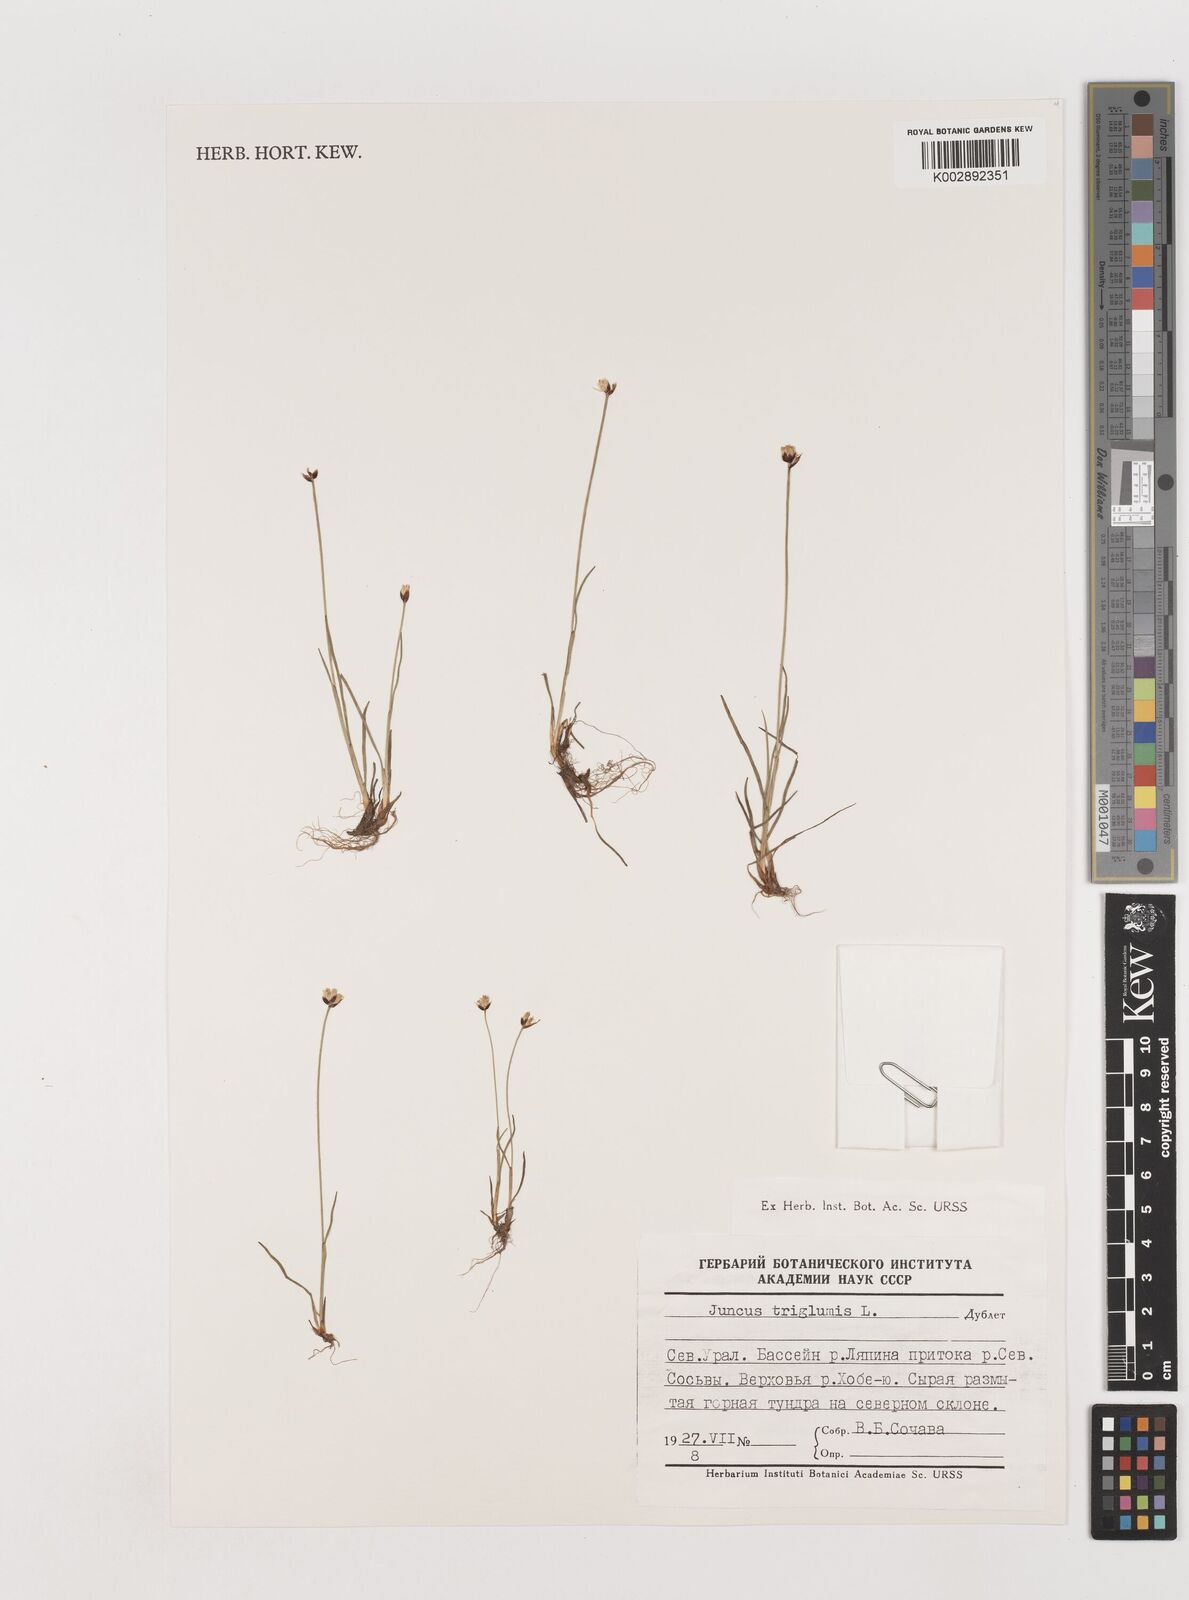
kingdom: Plantae
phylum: Tracheophyta
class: Liliopsida
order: Poales
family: Juncaceae
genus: Juncus
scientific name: Juncus triglumis
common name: Three-flowered rush
